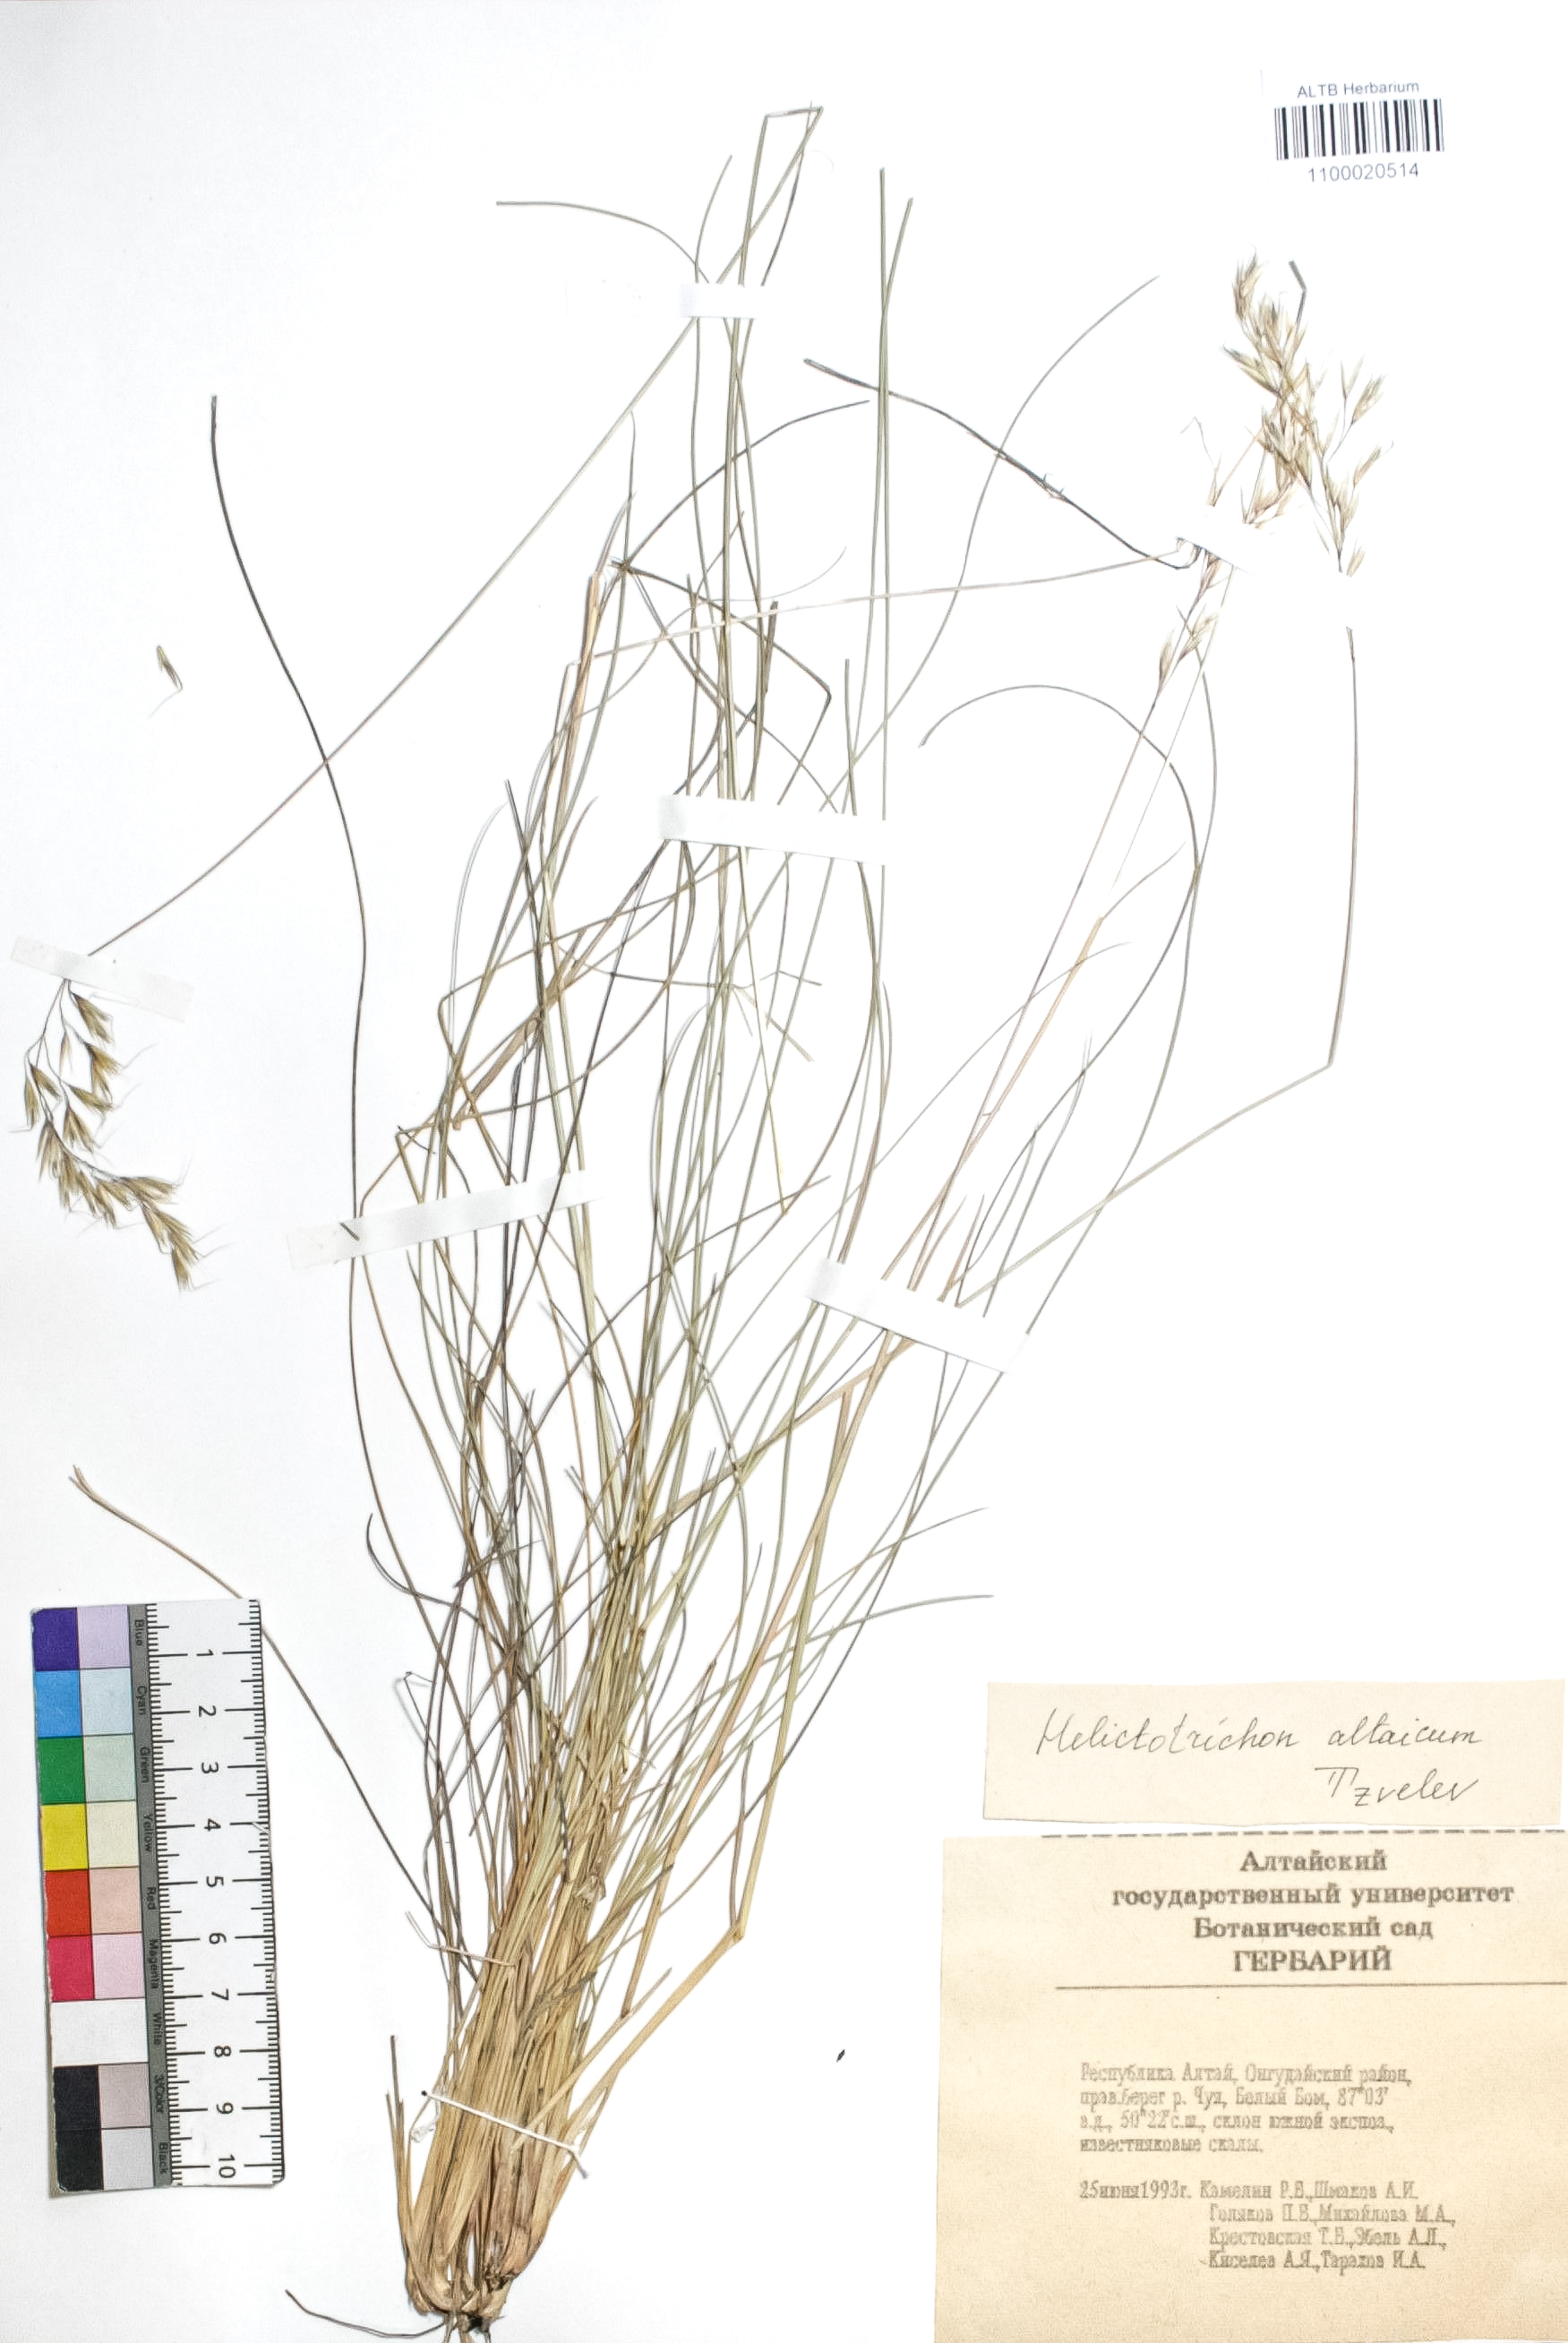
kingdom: Plantae
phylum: Tracheophyta
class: Liliopsida
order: Poales
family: Poaceae
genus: Helictotrichon
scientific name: Helictotrichon desertorum
